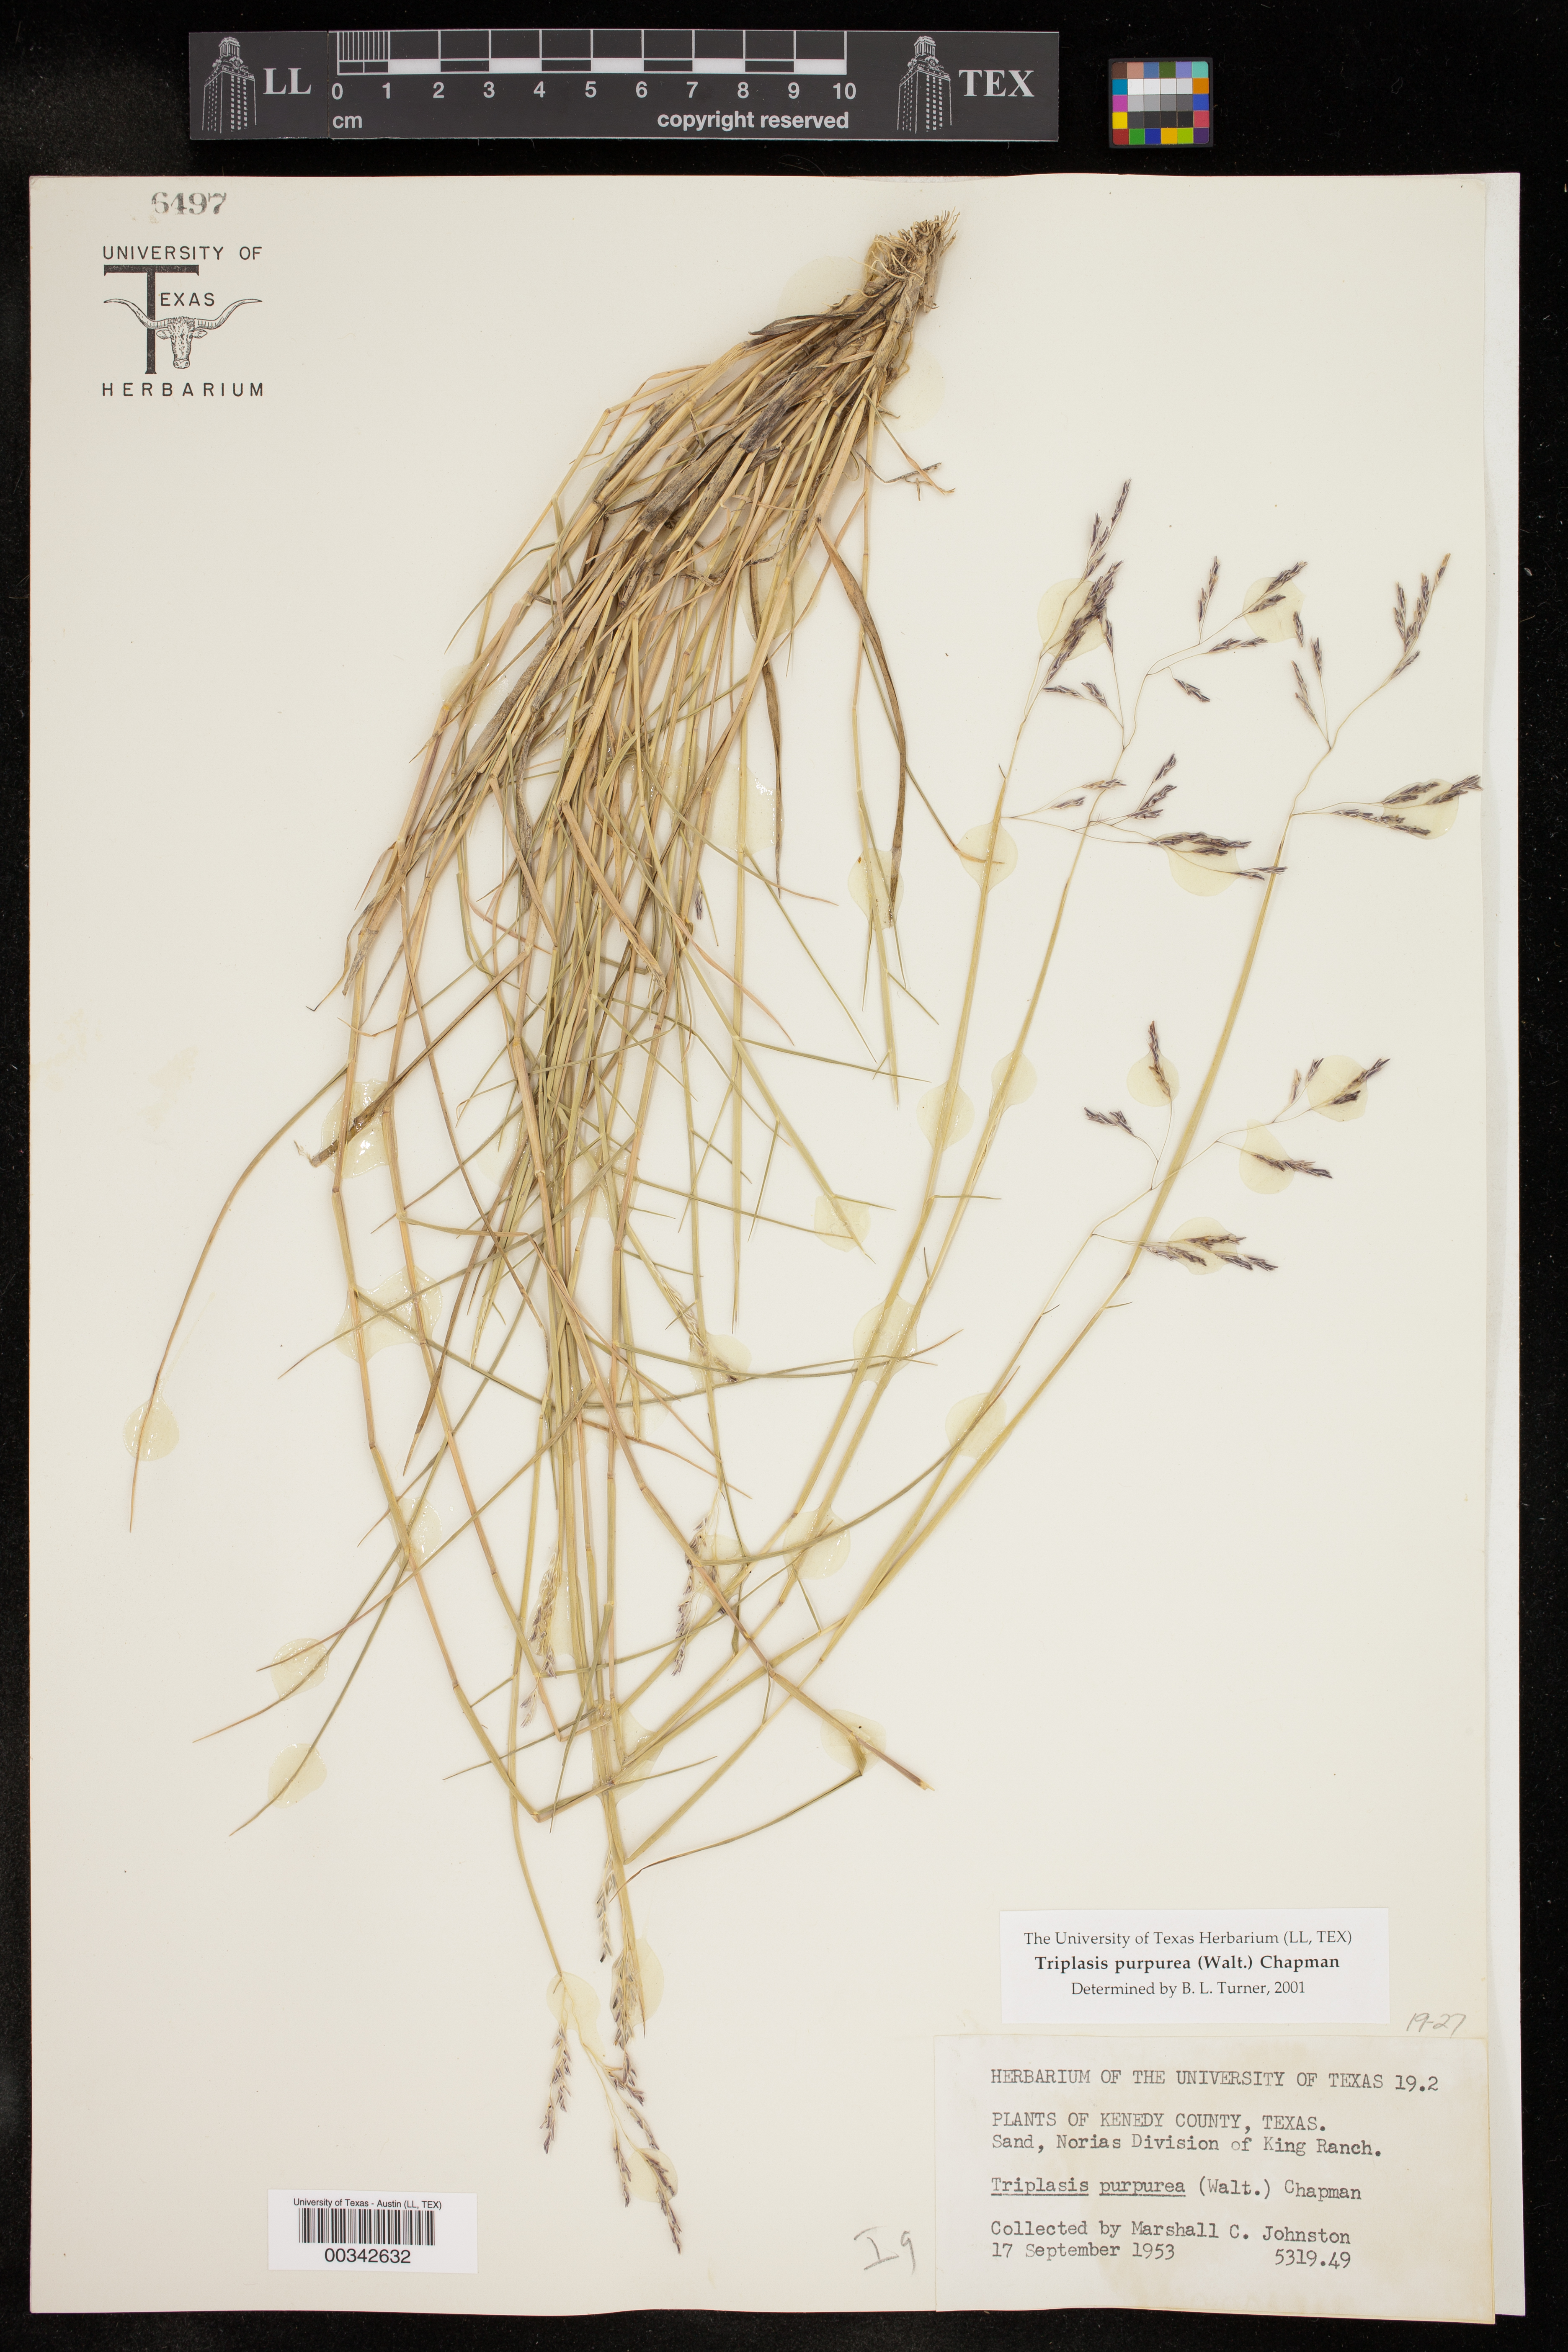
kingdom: Plantae
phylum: Tracheophyta
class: Liliopsida
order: Poales
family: Poaceae
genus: Triplasis
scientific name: Triplasis purpurea
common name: Purple sand grass
